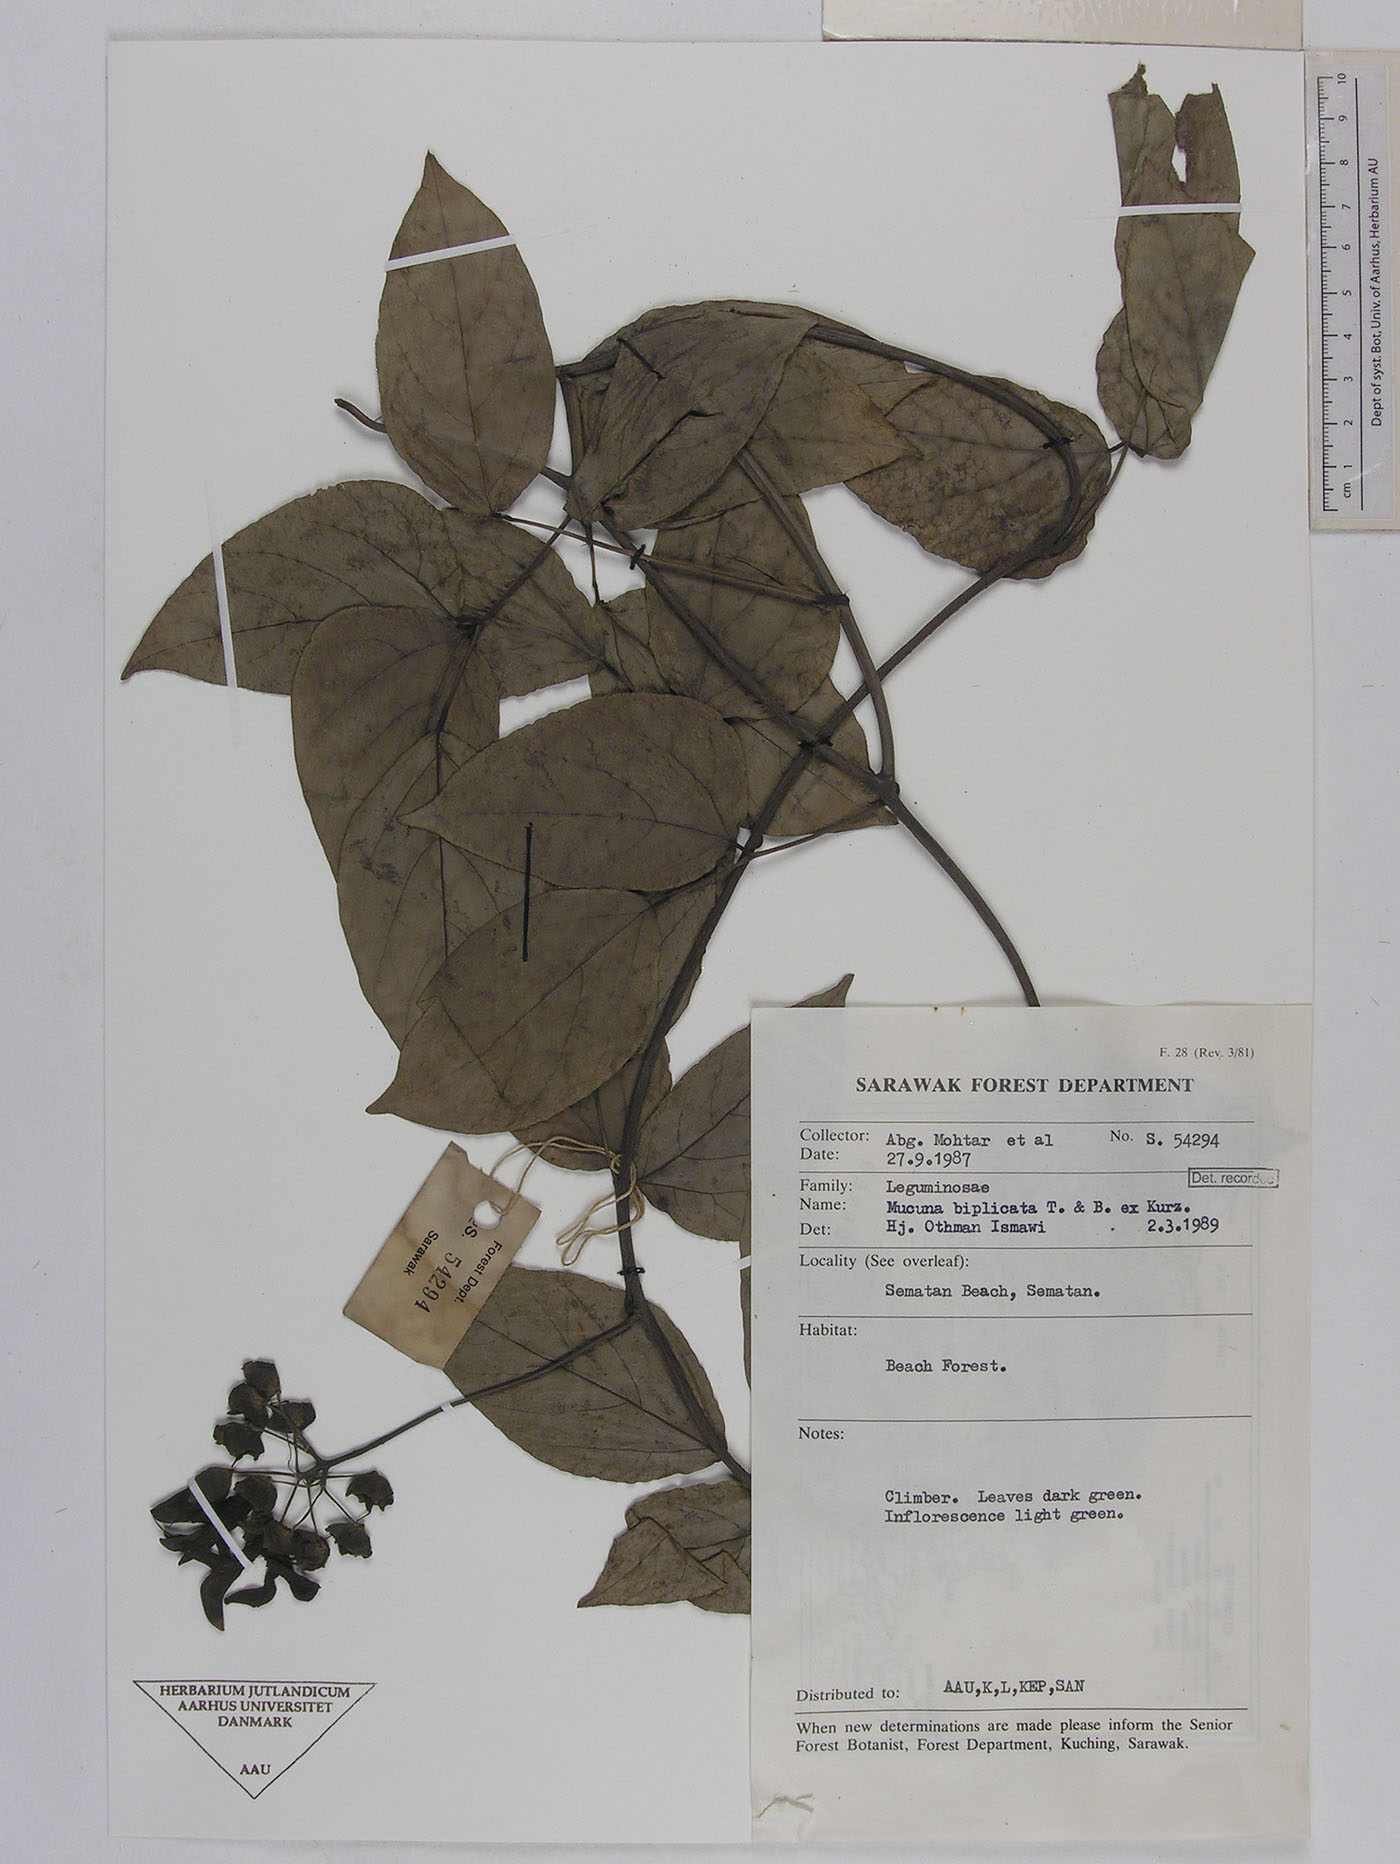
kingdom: Plantae
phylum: Tracheophyta
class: Magnoliopsida
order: Fabales
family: Fabaceae
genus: Mucuna
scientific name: Mucuna biplicata
